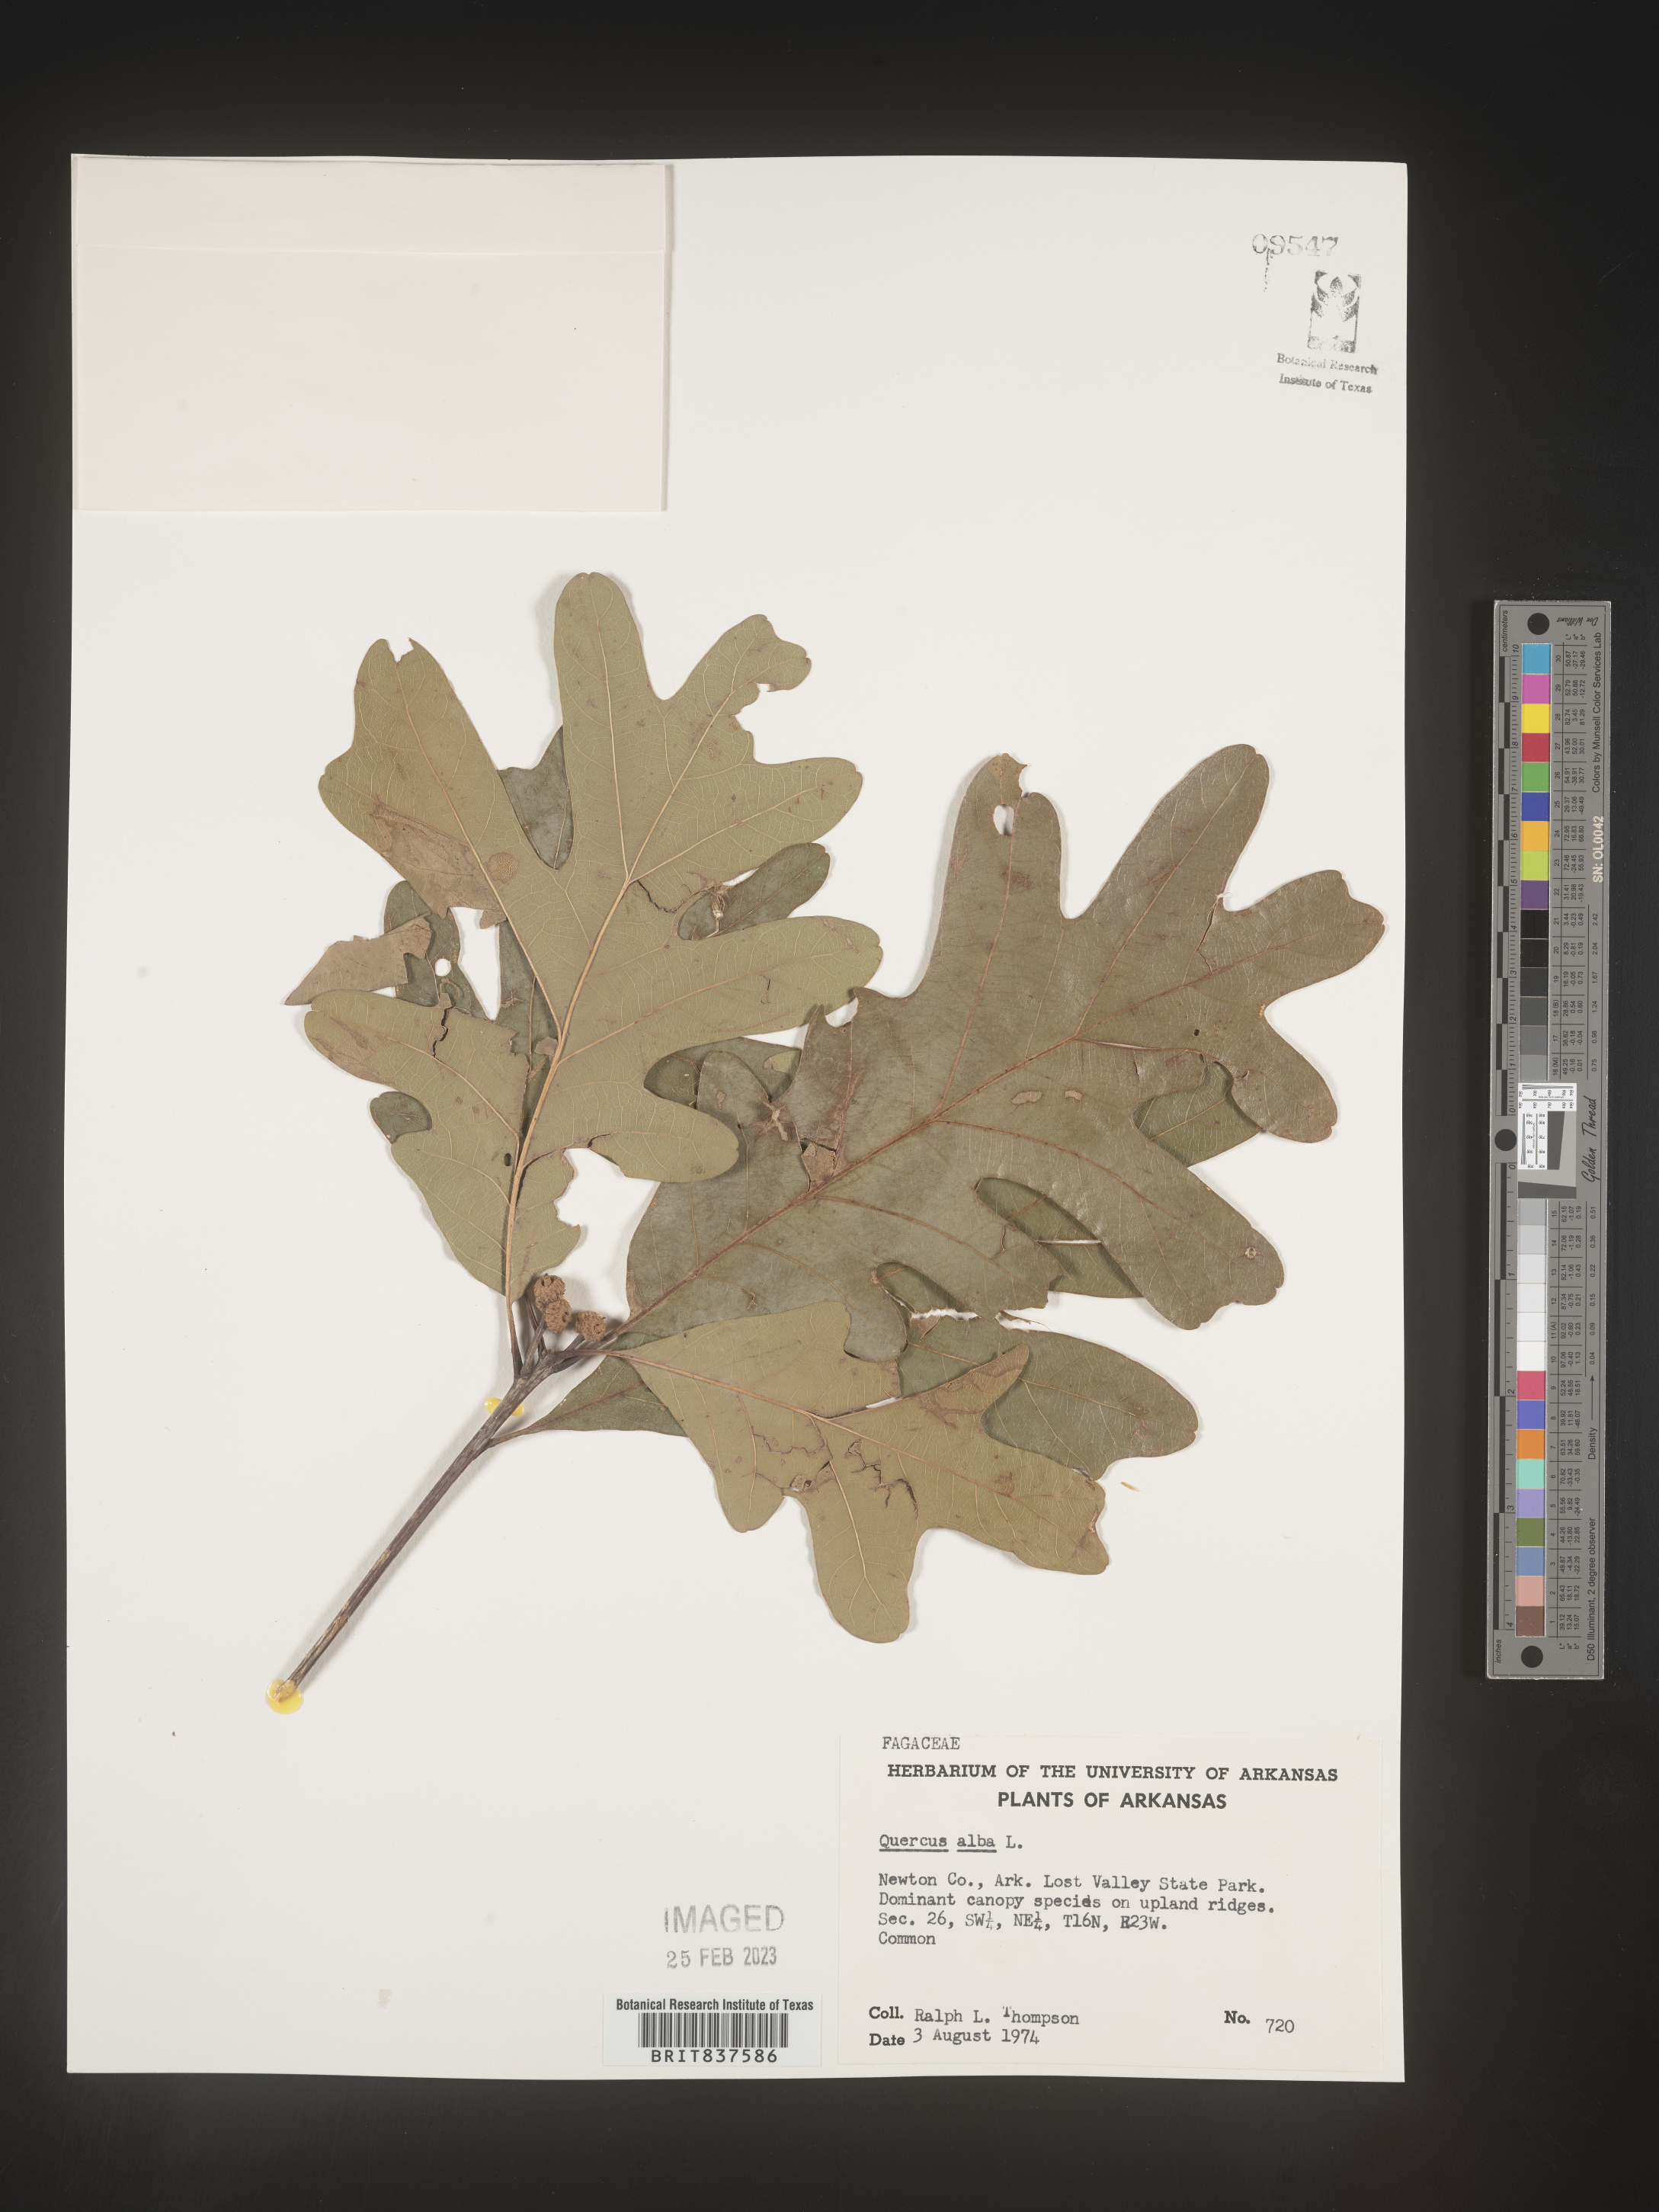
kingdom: Plantae
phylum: Tracheophyta
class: Magnoliopsida
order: Fagales
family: Fagaceae
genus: Quercus
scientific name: Quercus alba
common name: White oak
